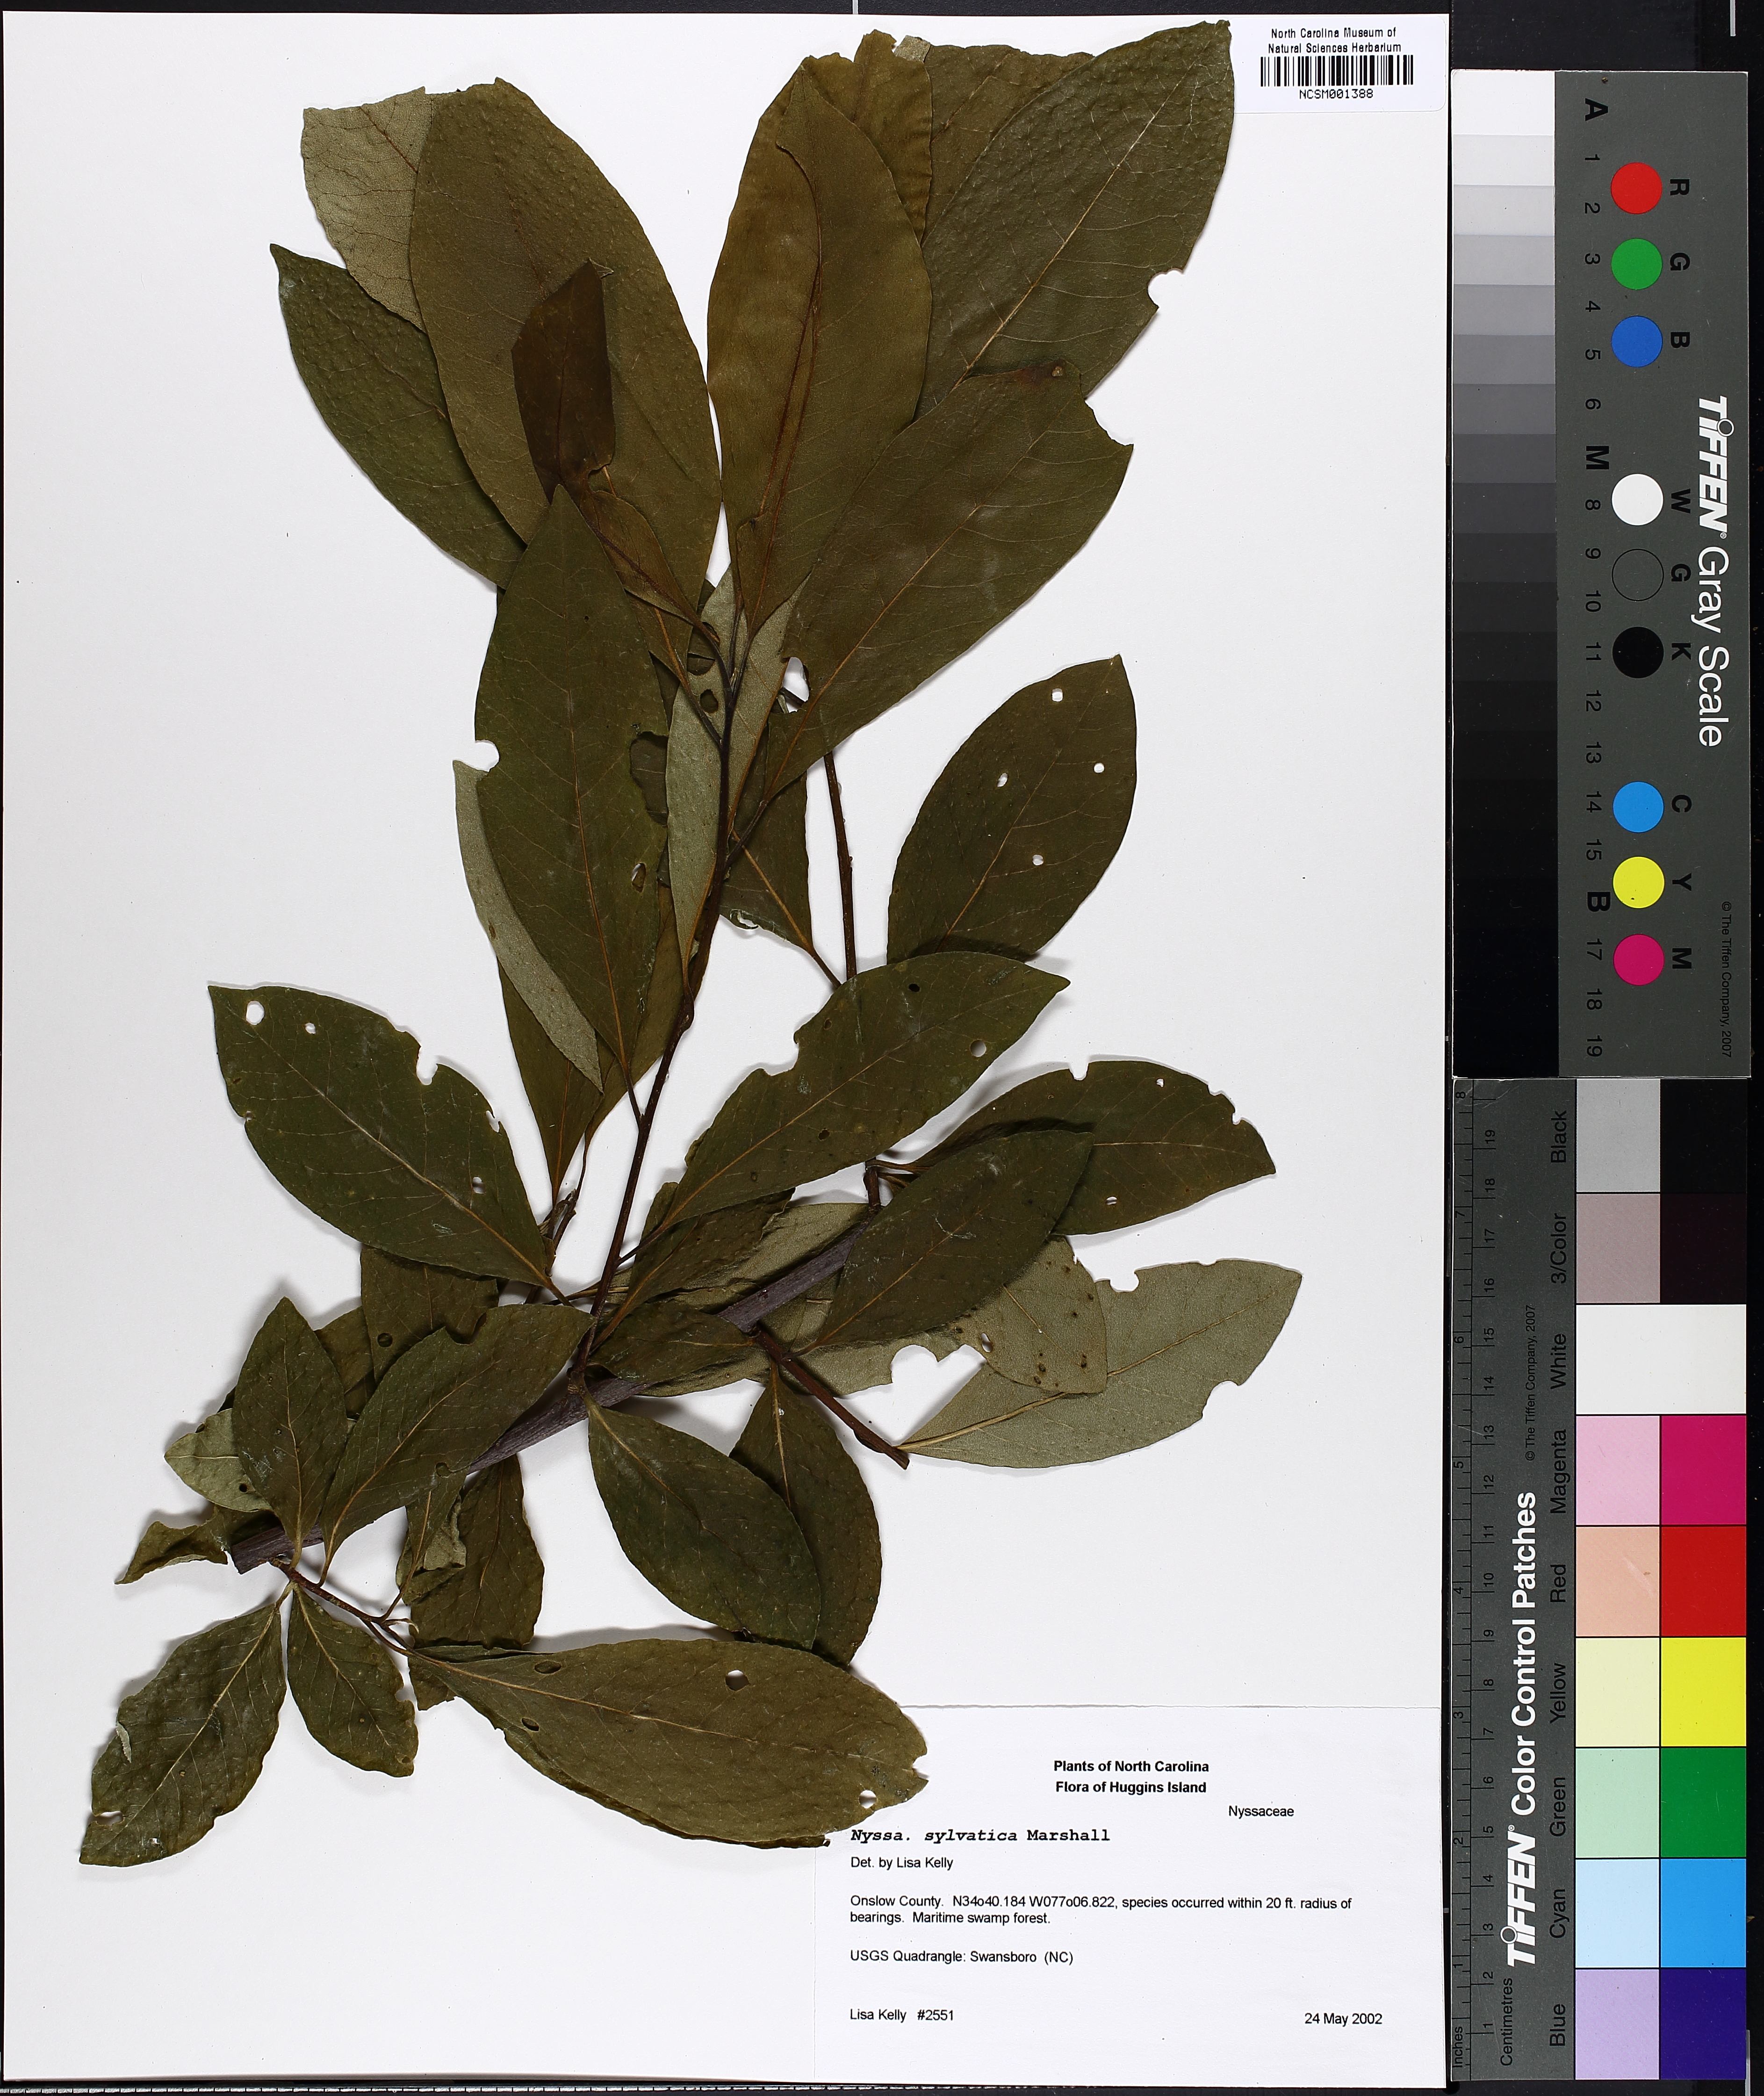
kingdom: Plantae
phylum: Tracheophyta
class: Magnoliopsida
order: Cornales
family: Nyssaceae
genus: Nyssa
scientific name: Nyssa sylvatica
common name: Black tupelo
